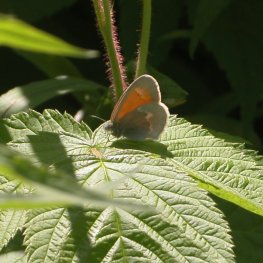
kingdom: Animalia
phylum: Arthropoda
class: Insecta
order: Lepidoptera
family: Nymphalidae
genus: Coenonympha
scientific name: Coenonympha tullia
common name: Large Heath
